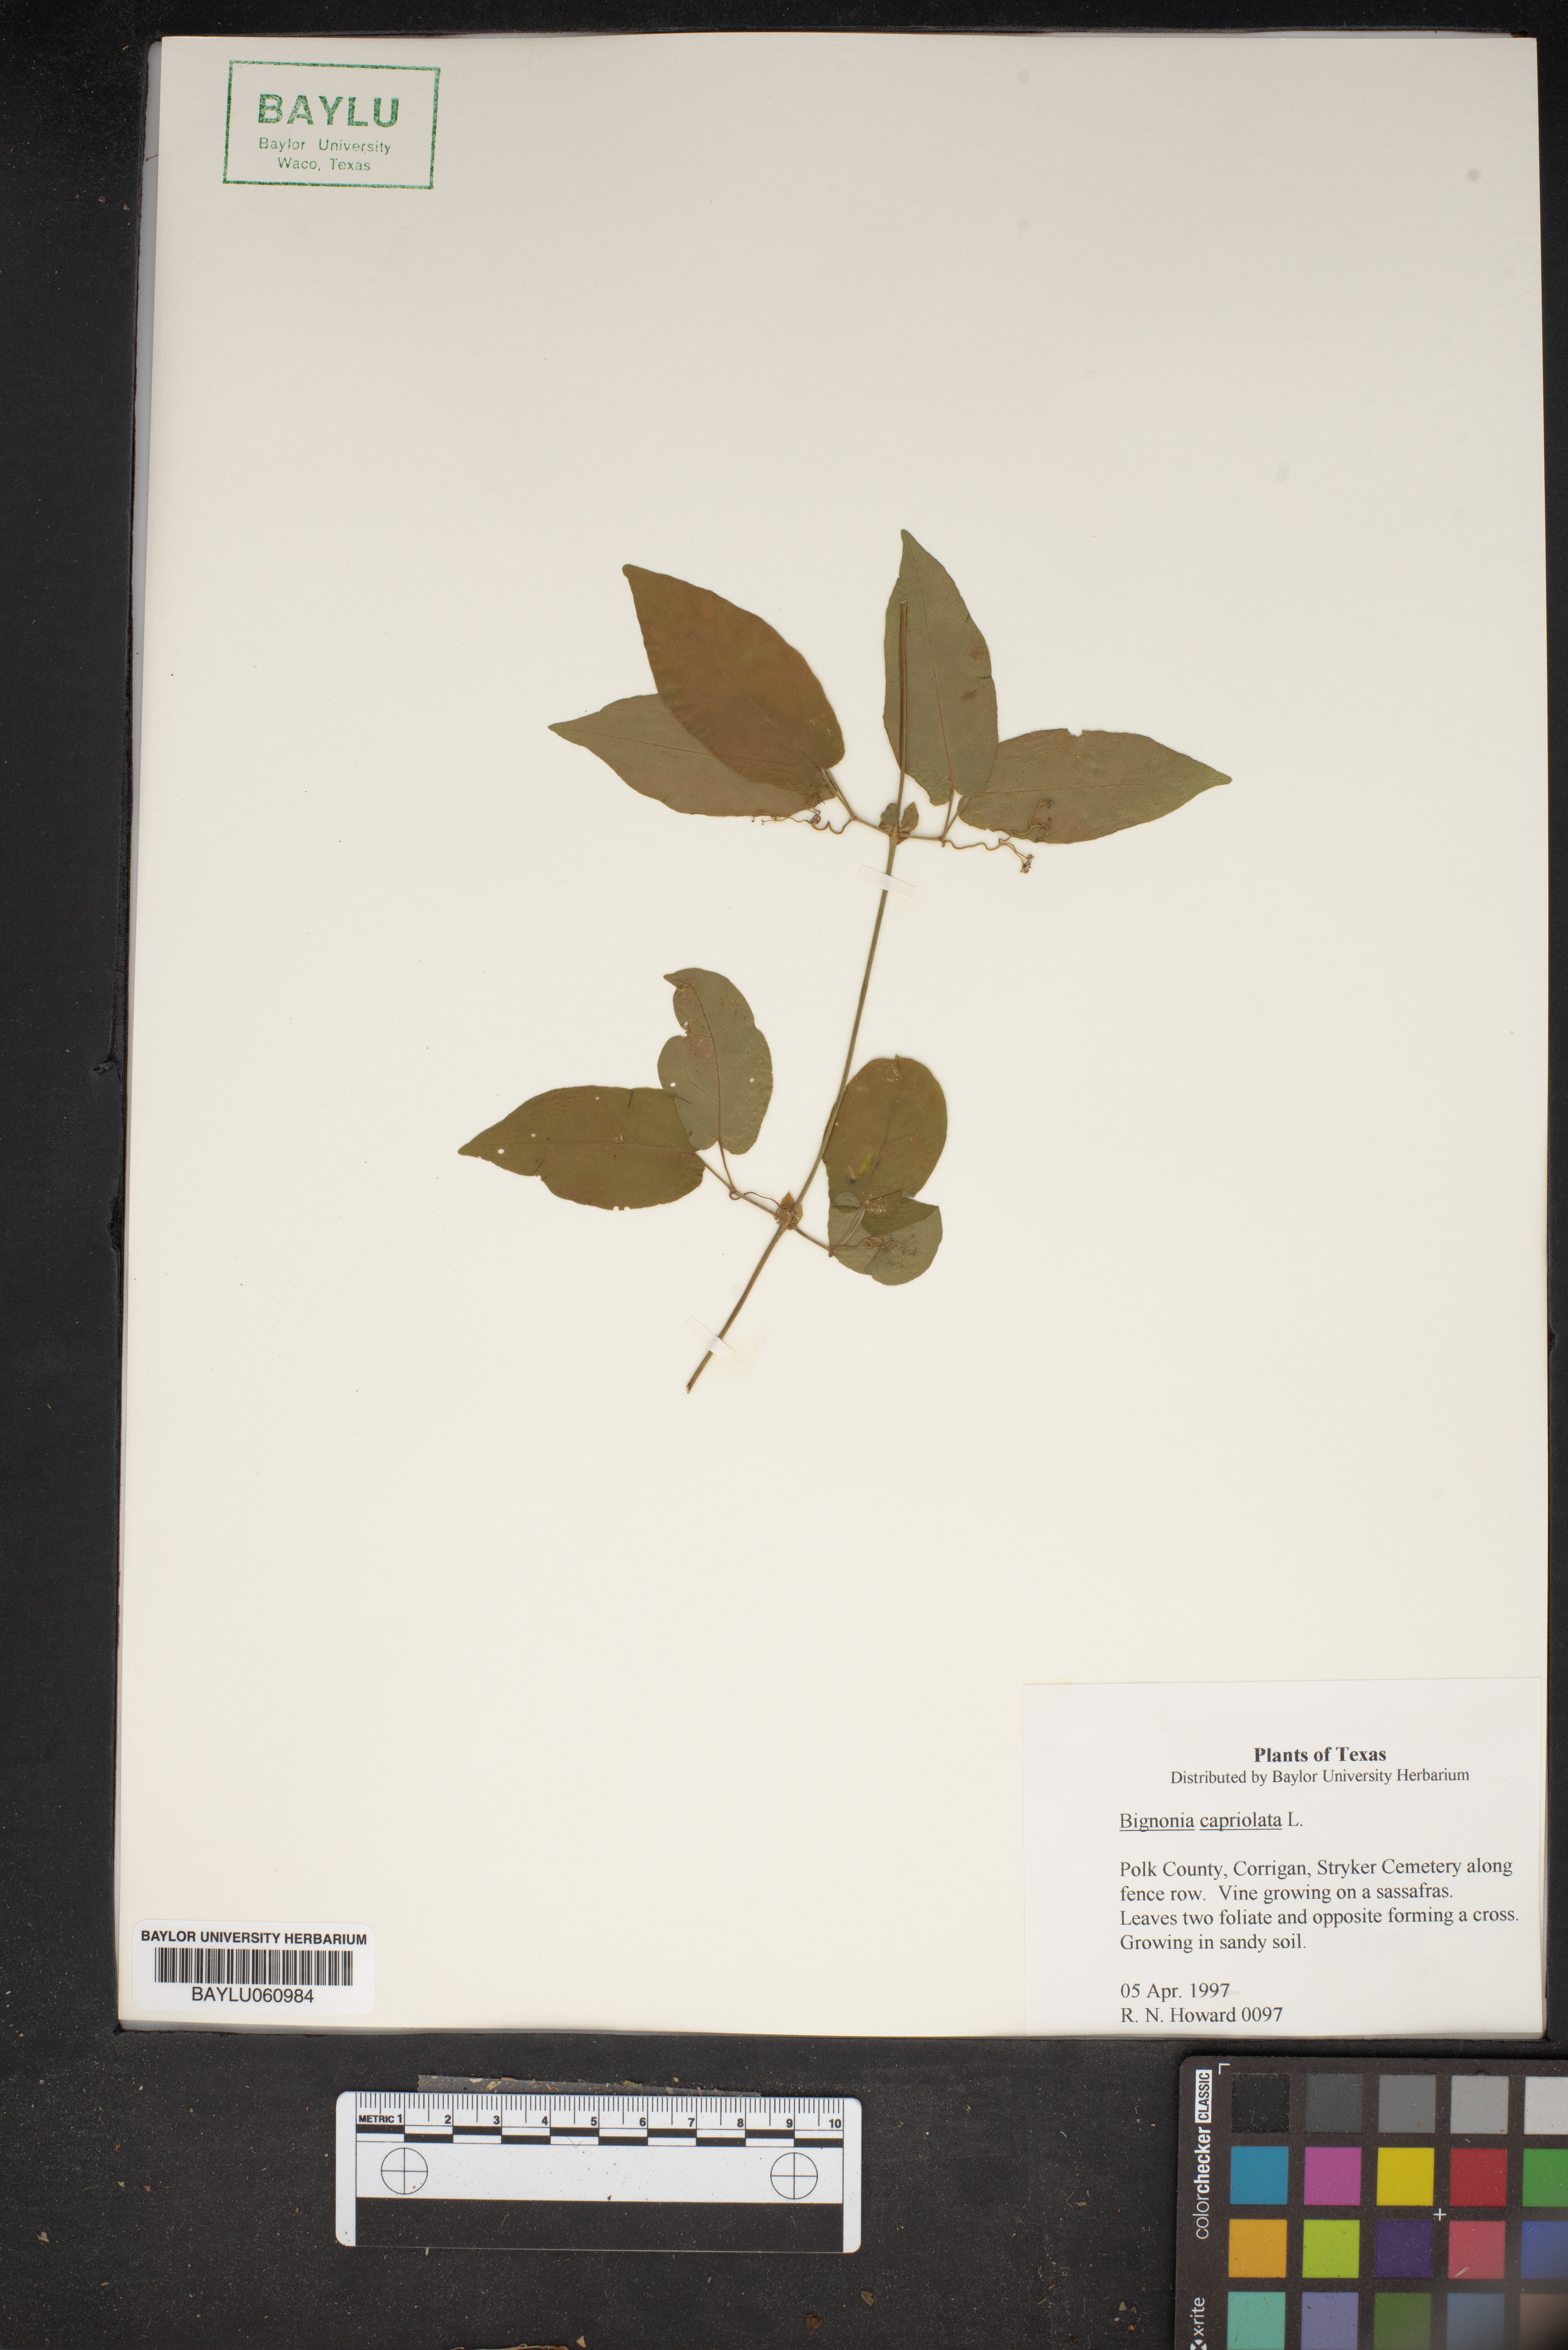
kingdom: Plantae
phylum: Tracheophyta
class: Magnoliopsida
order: Lamiales
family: Bignoniaceae
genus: Bignonia
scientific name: Bignonia capreolata
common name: Crossvine
